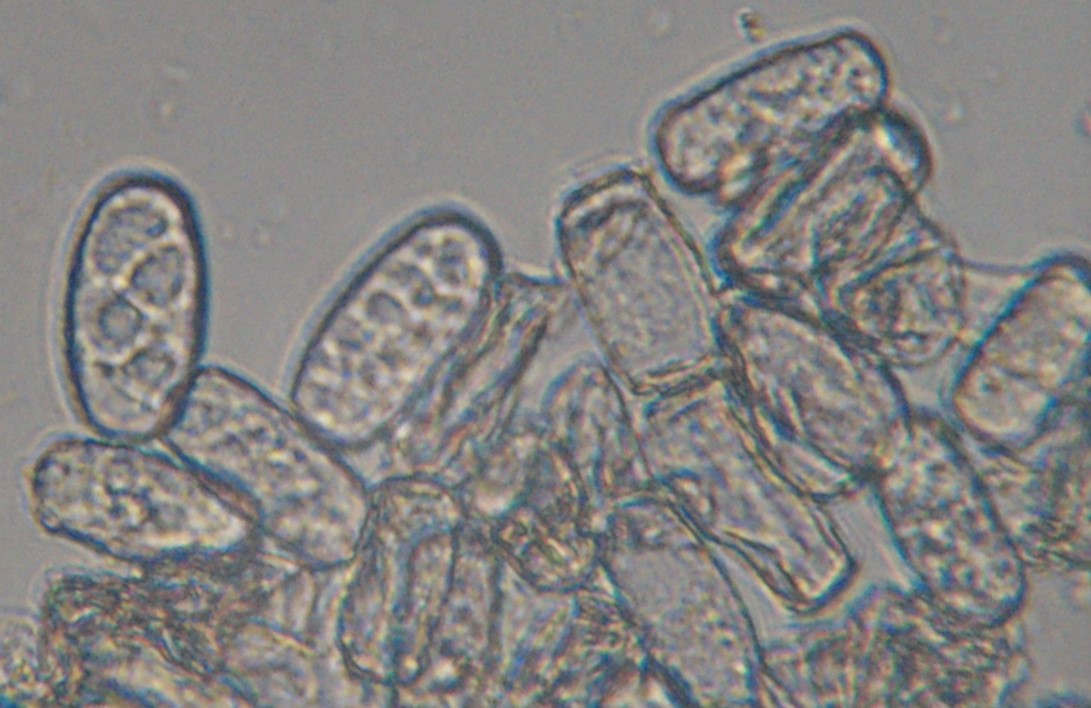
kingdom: Fungi
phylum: Ascomycota
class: Leotiomycetes
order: Helotiales
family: Erysiphaceae
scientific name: Erysiphaceae
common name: meldugfamilien
